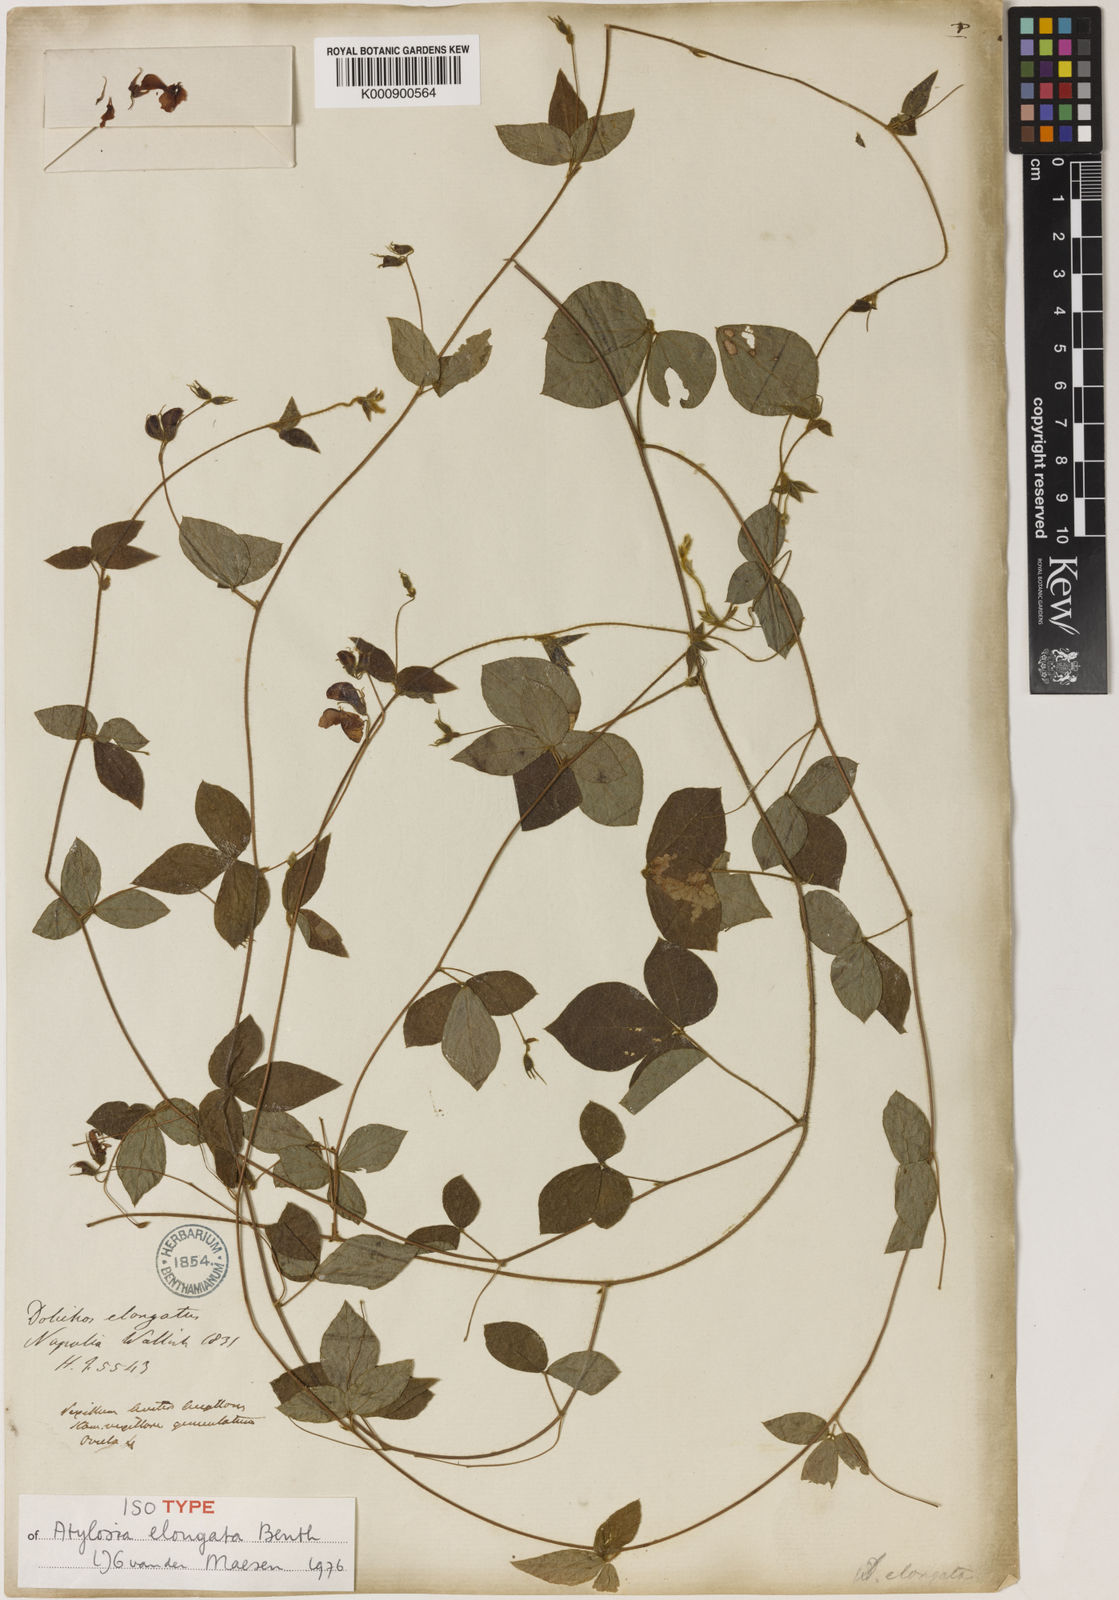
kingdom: Plantae
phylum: Tracheophyta
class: Magnoliopsida
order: Fabales
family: Fabaceae
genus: Cajanus
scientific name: Cajanus elongatus
